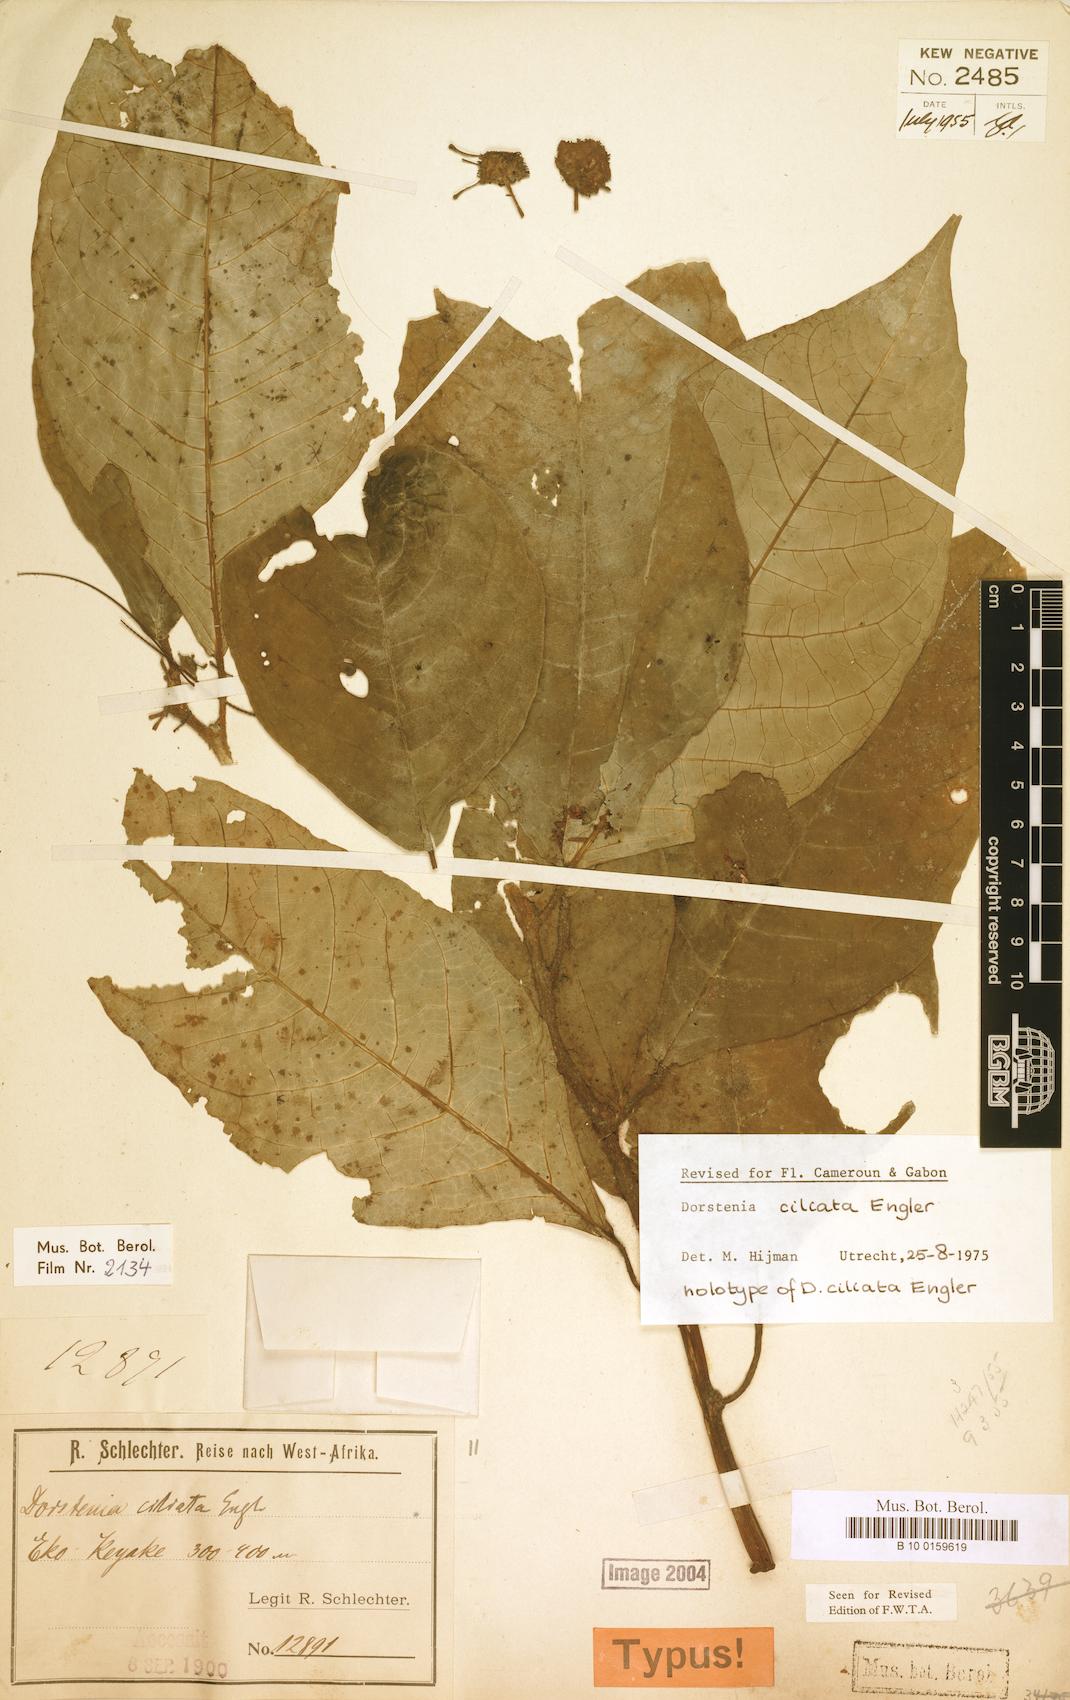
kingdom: Plantae
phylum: Tracheophyta
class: Magnoliopsida
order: Rosales
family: Moraceae
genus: Dorstenia
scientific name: Dorstenia ciliata
